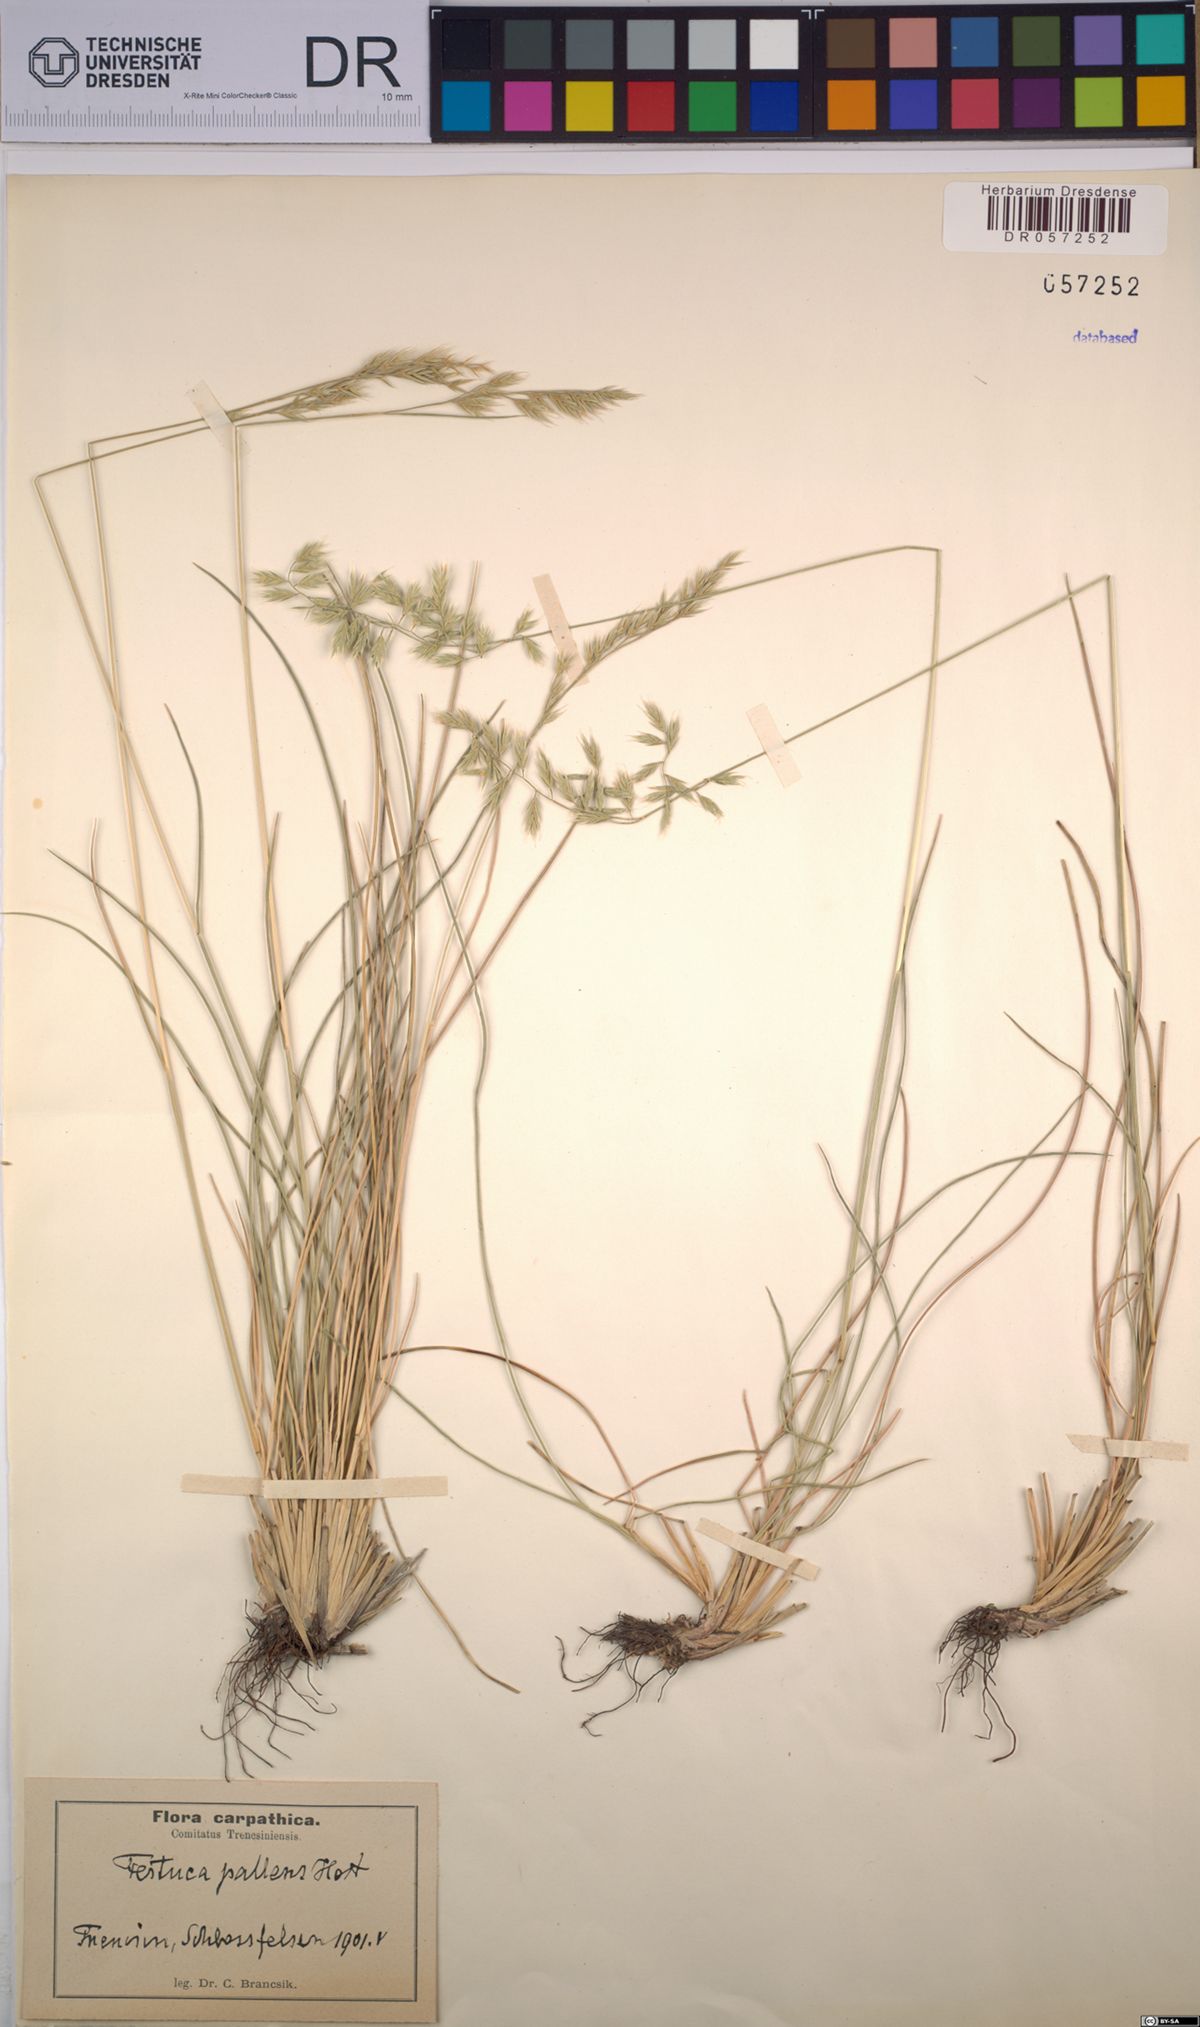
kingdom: Plantae
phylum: Tracheophyta
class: Liliopsida
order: Poales
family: Poaceae
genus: Festuca
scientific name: Festuca pallens
